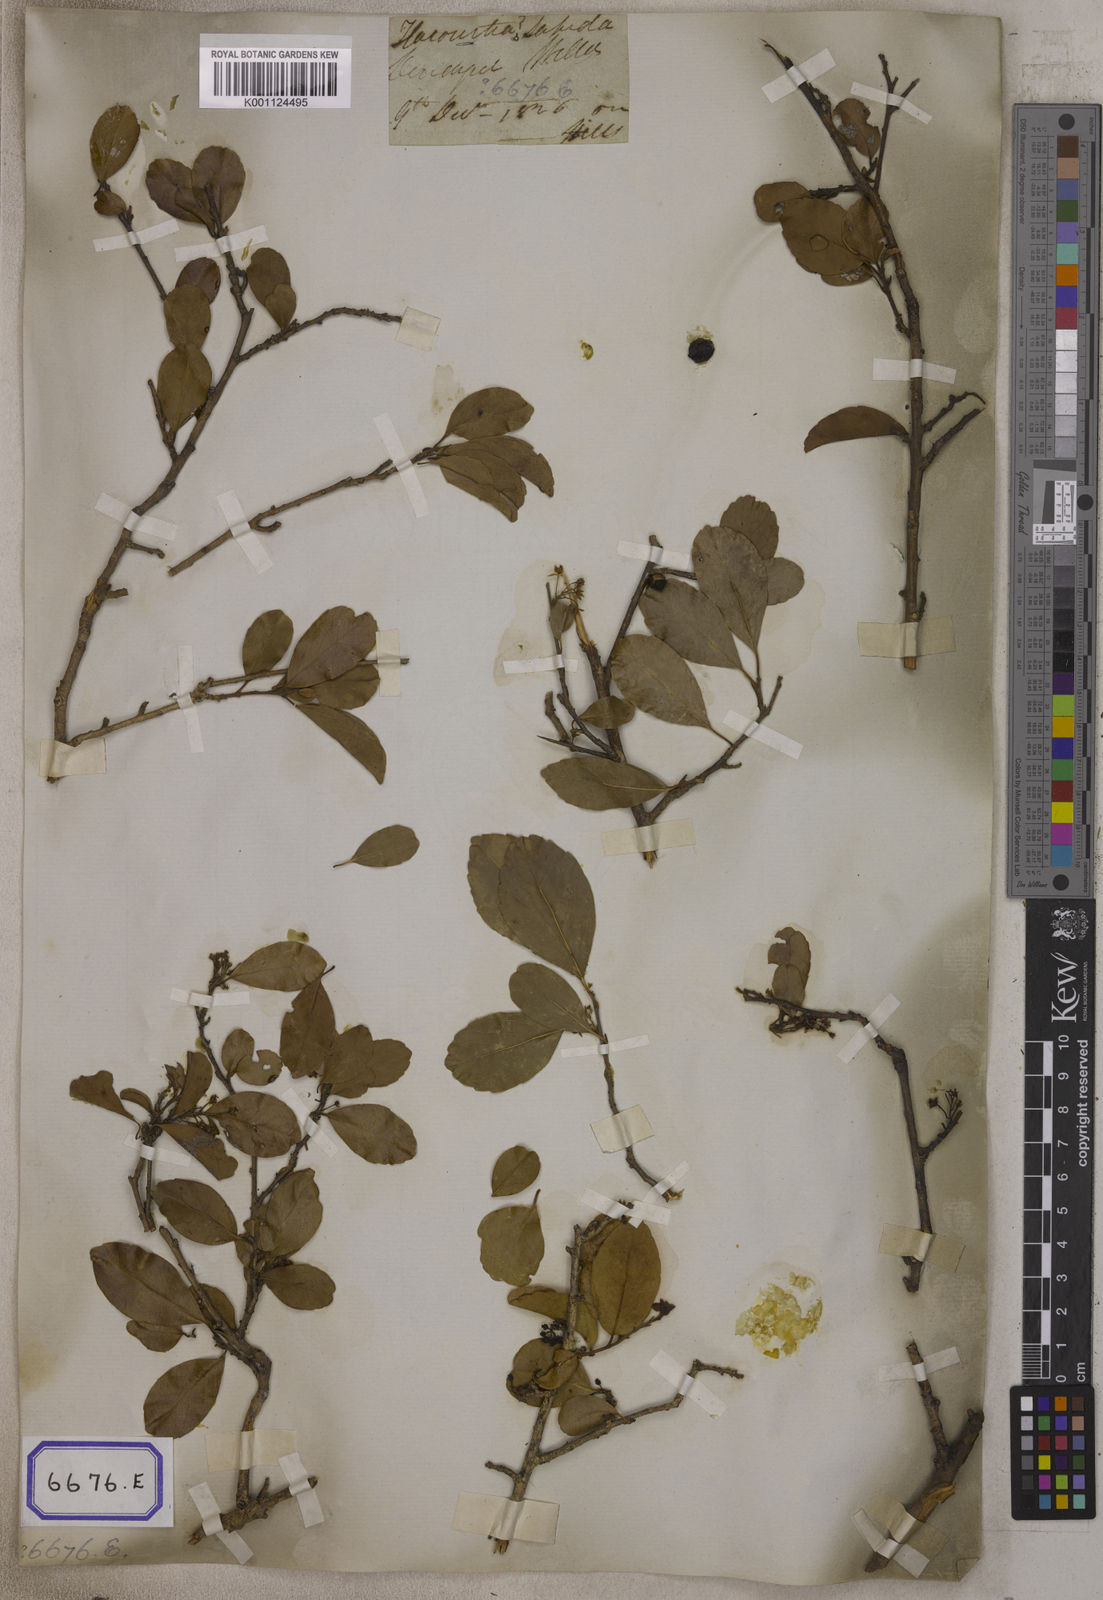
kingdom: Plantae
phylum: Tracheophyta
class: Magnoliopsida
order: Malpighiales
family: Salicaceae
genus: Flacourtia
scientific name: Flacourtia indica
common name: Governor's plum
